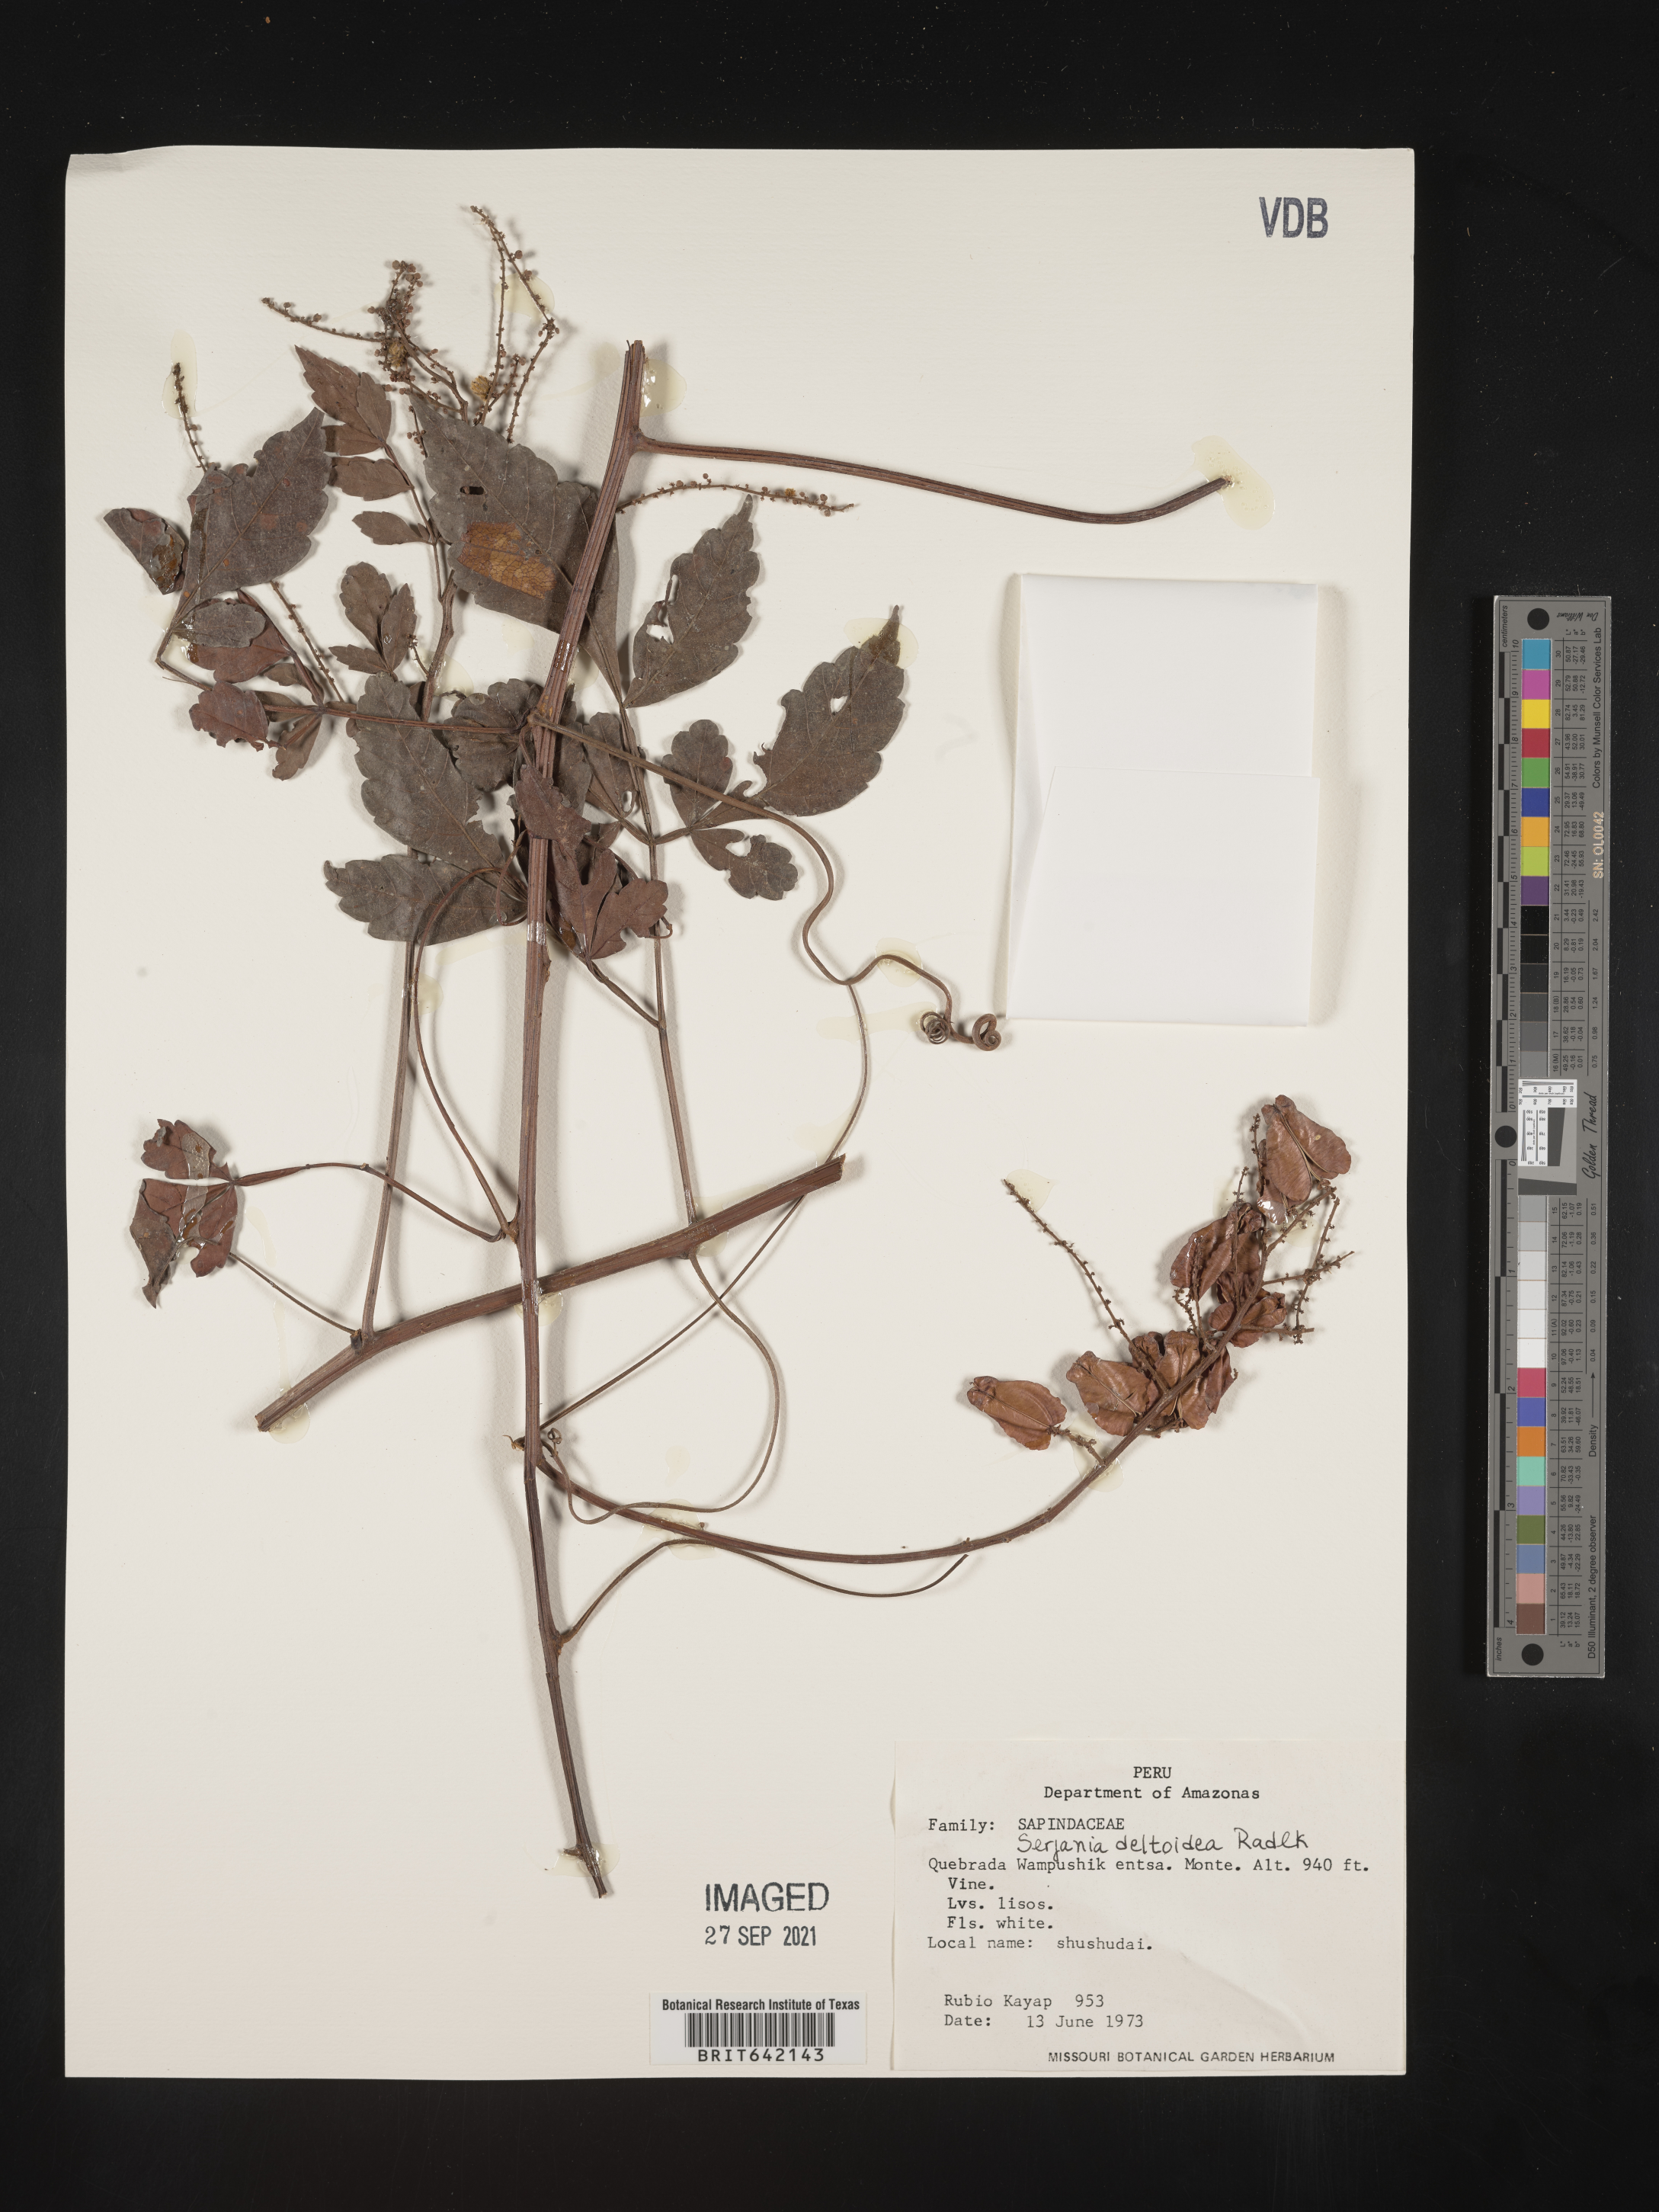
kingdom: Plantae
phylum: Tracheophyta
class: Magnoliopsida
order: Sapindales
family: Sapindaceae
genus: Serjania
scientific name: Serjania
